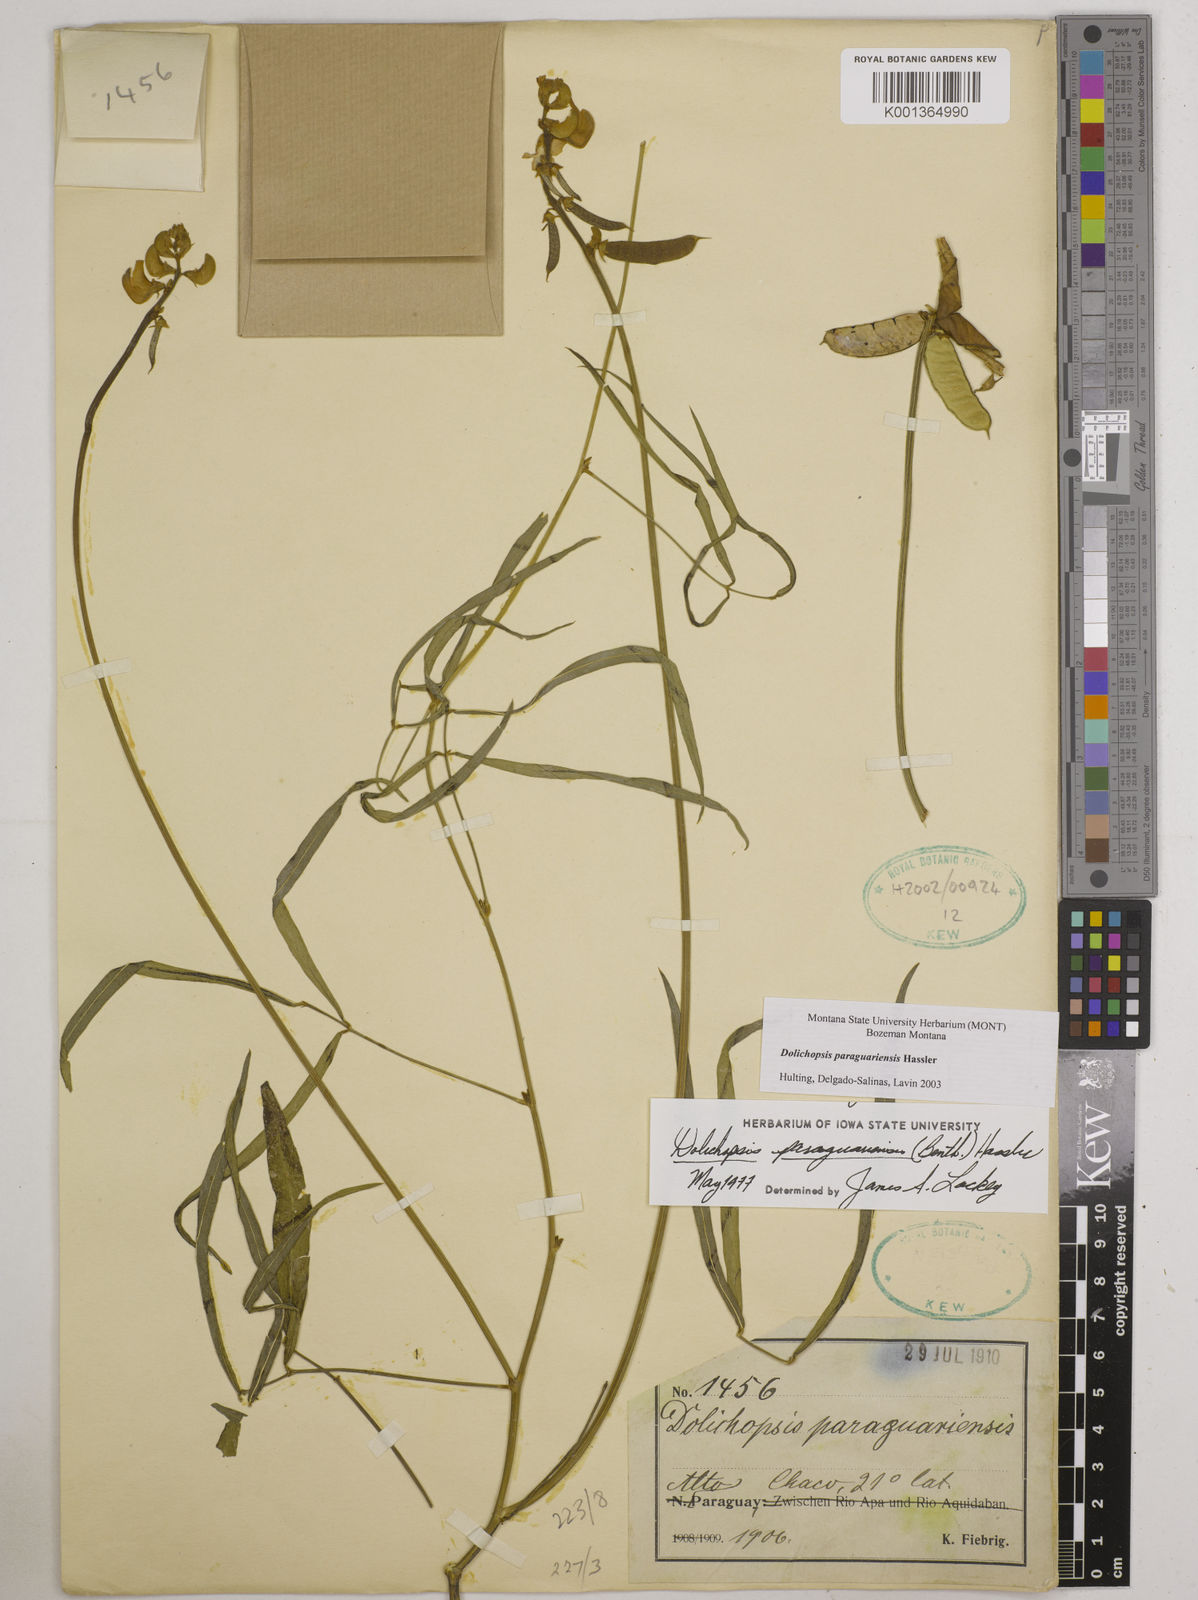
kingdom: Plantae
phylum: Tracheophyta
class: Magnoliopsida
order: Fabales
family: Fabaceae
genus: Dolichopsis
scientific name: Dolichopsis paraguariensis
